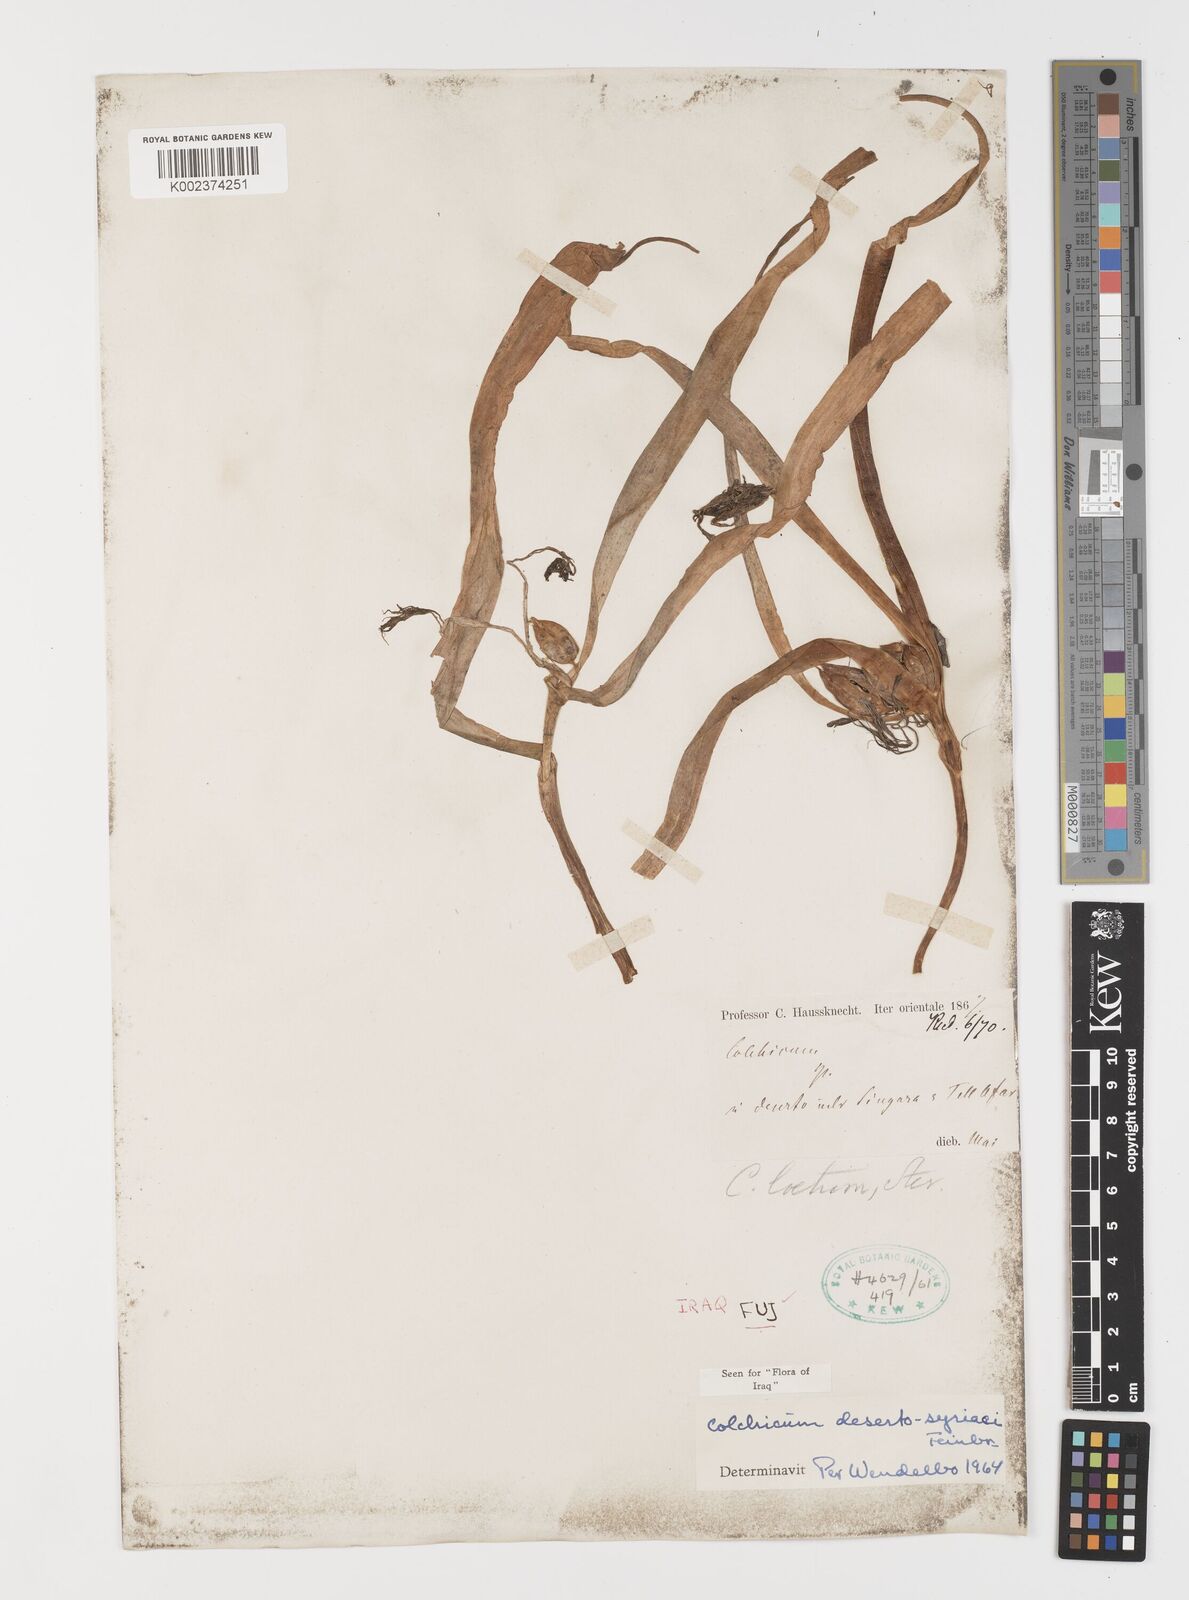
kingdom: Plantae
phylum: Tracheophyta
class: Liliopsida
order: Liliales
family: Colchicaceae
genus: Colchicum
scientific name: Colchicum schimperi
